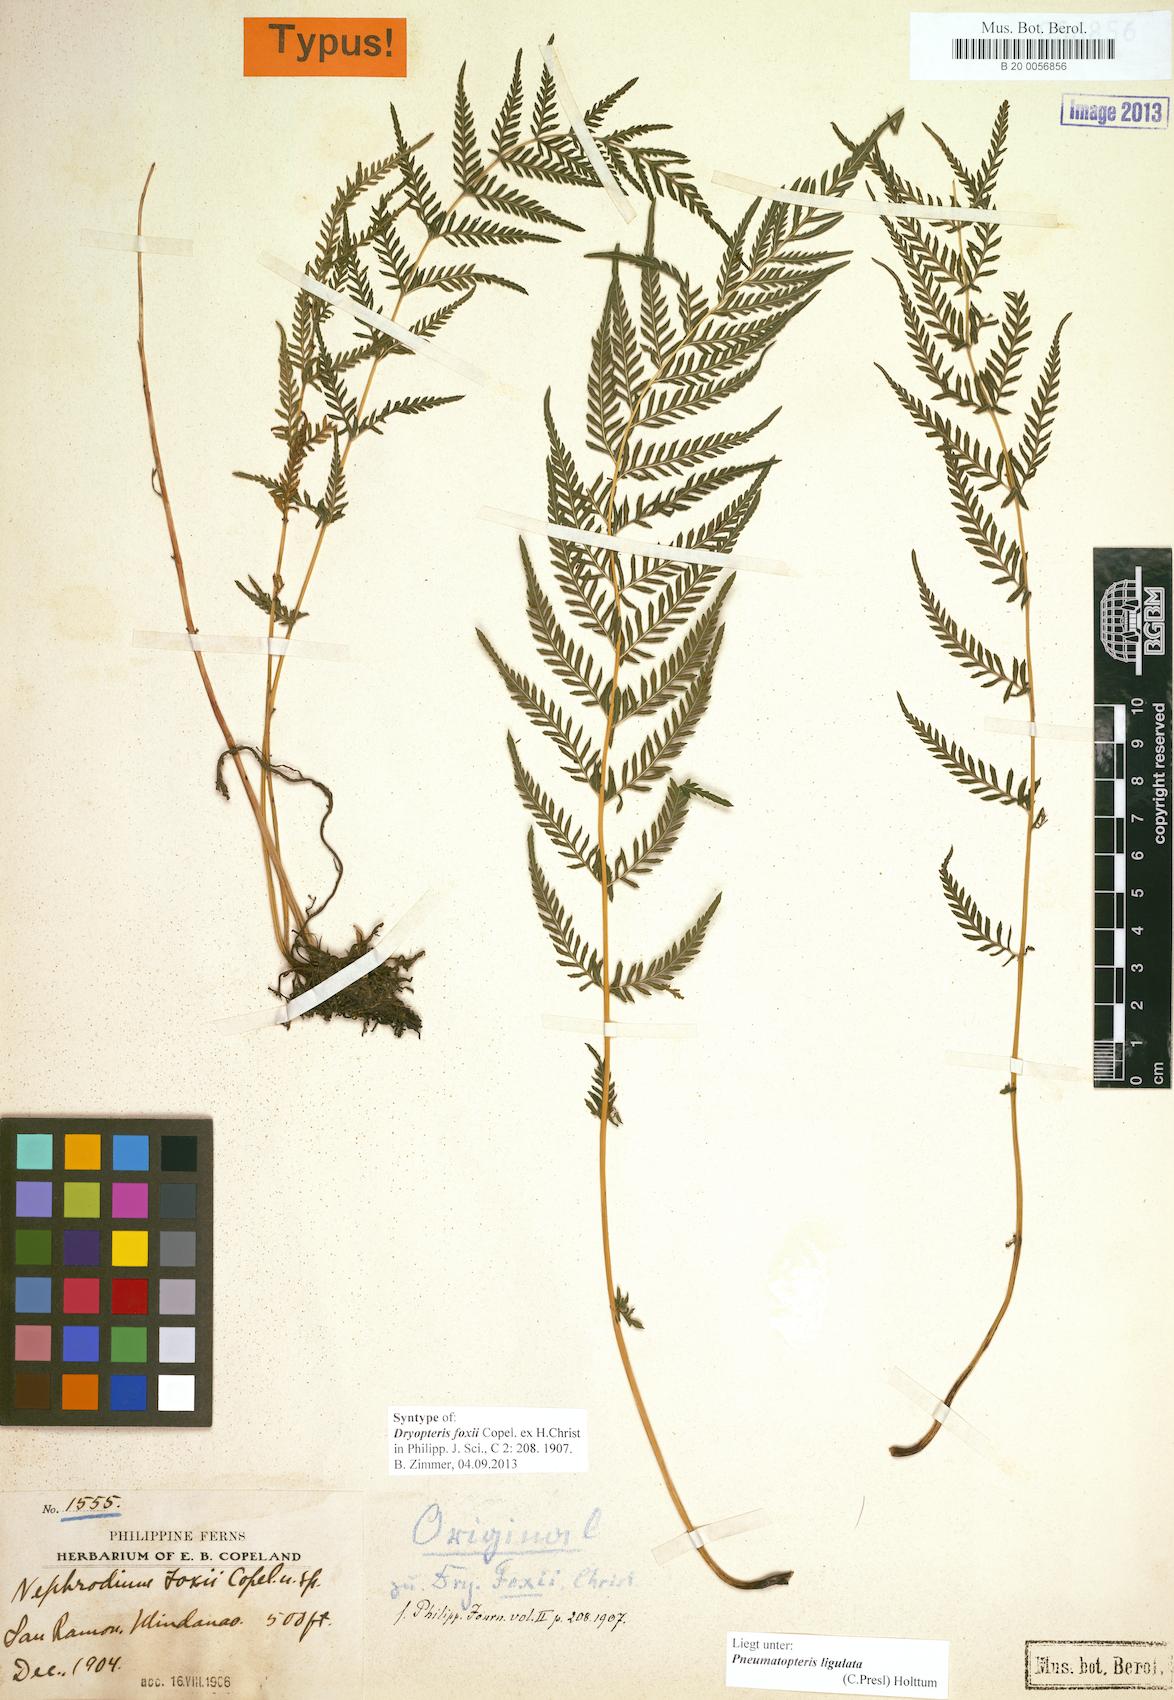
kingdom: Plantae
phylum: Tracheophyta
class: Polypodiopsida
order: Polypodiales
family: Thelypteridaceae
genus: Plesioneuron
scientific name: Plesioneuron ligulatum
